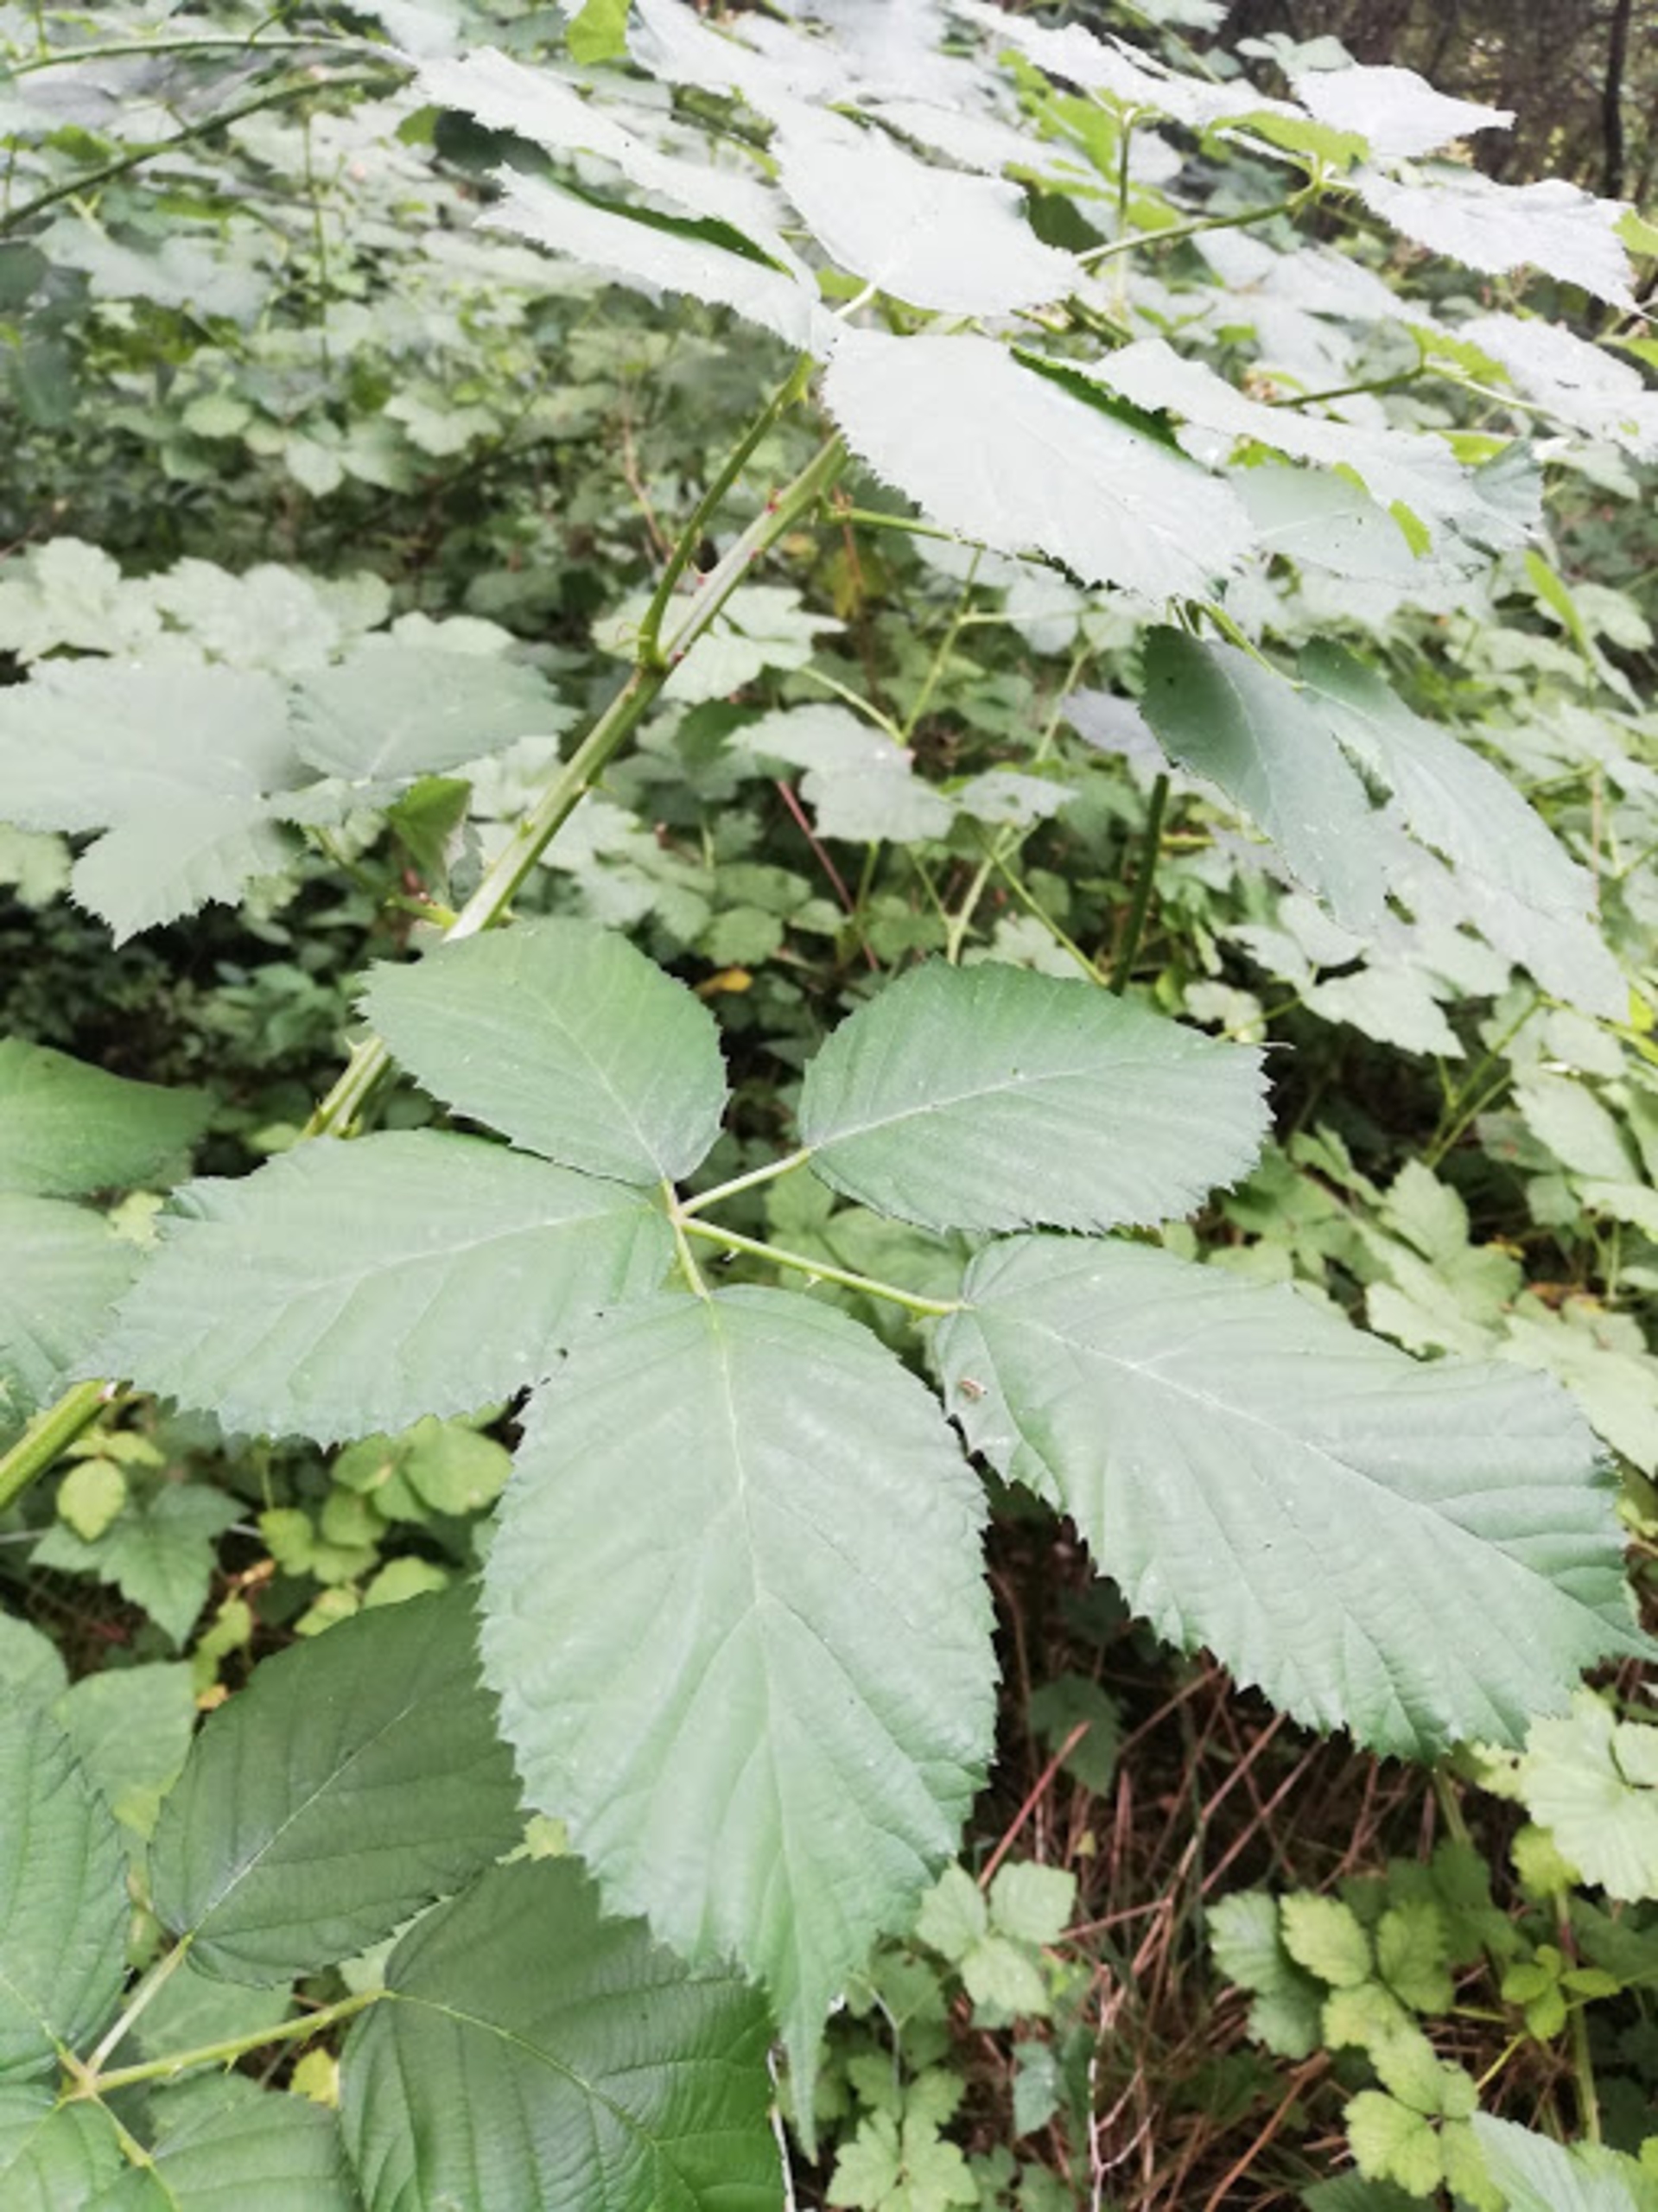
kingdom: Plantae
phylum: Tracheophyta
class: Magnoliopsida
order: Rosales
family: Rosaceae
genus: Rubus
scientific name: Rubus armeniacus
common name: Armensk brombær
